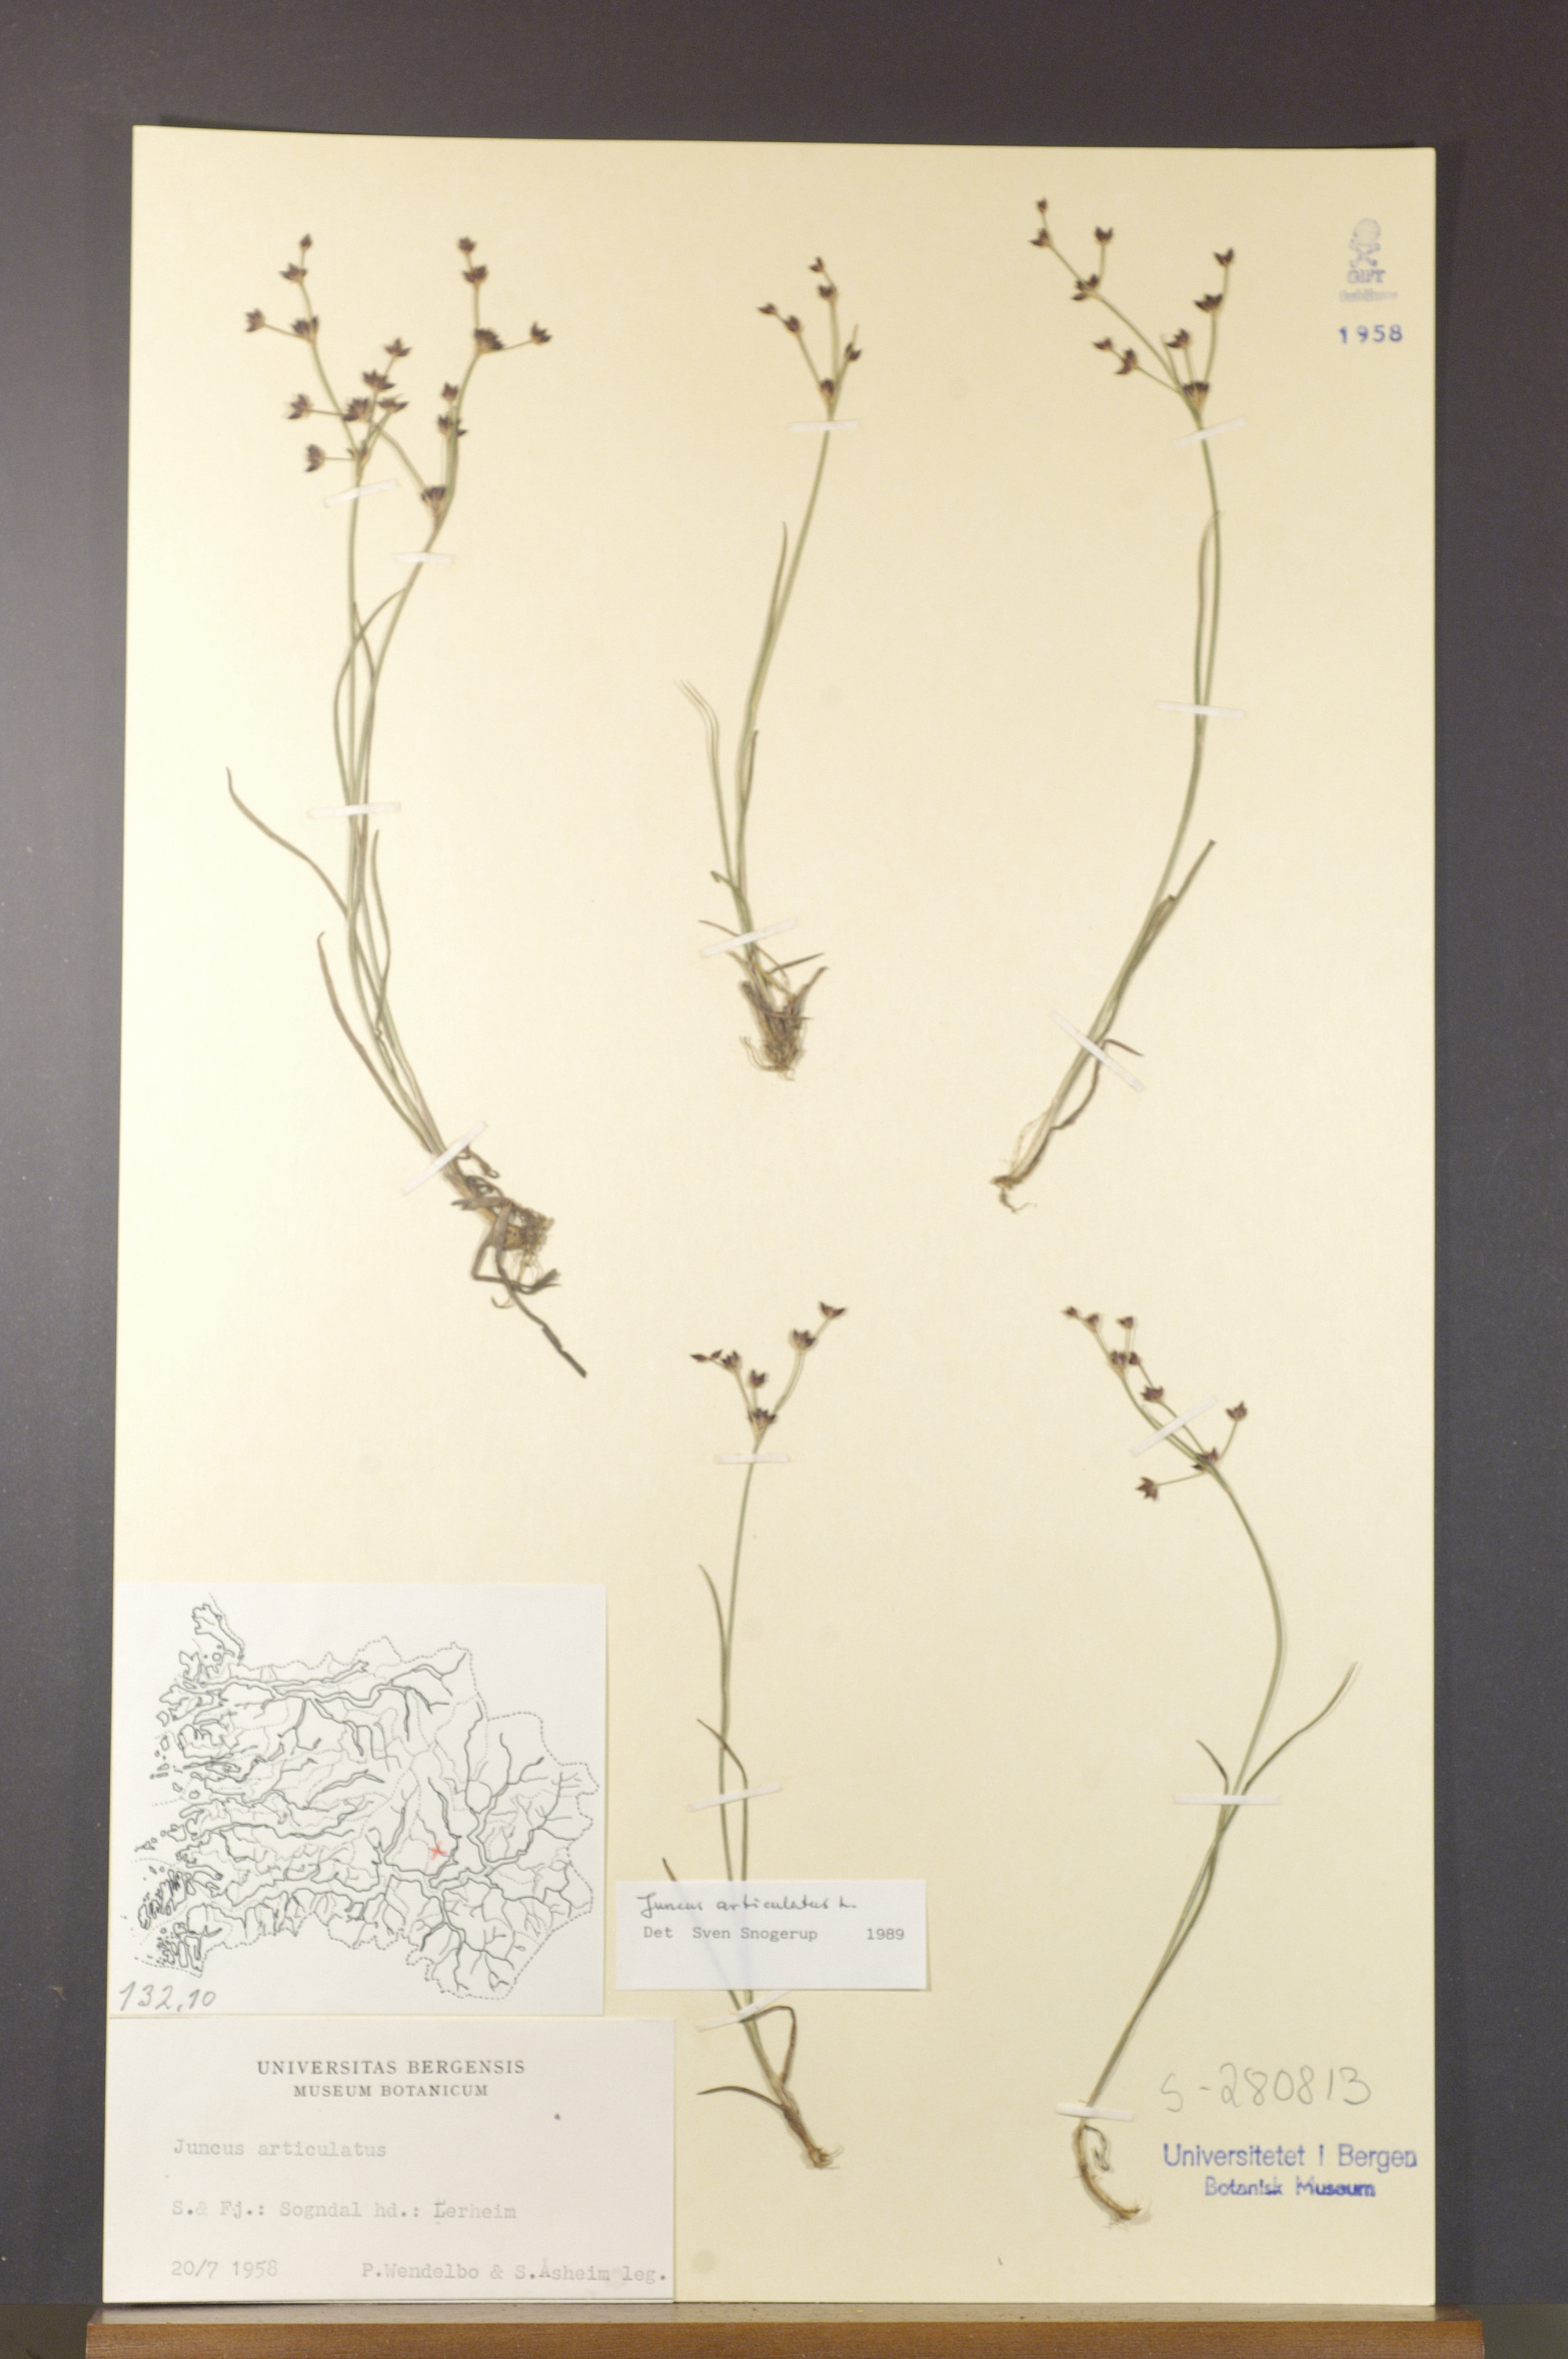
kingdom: Plantae
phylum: Tracheophyta
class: Liliopsida
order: Poales
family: Juncaceae
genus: Juncus
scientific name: Juncus articulatus
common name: Jointed rush
